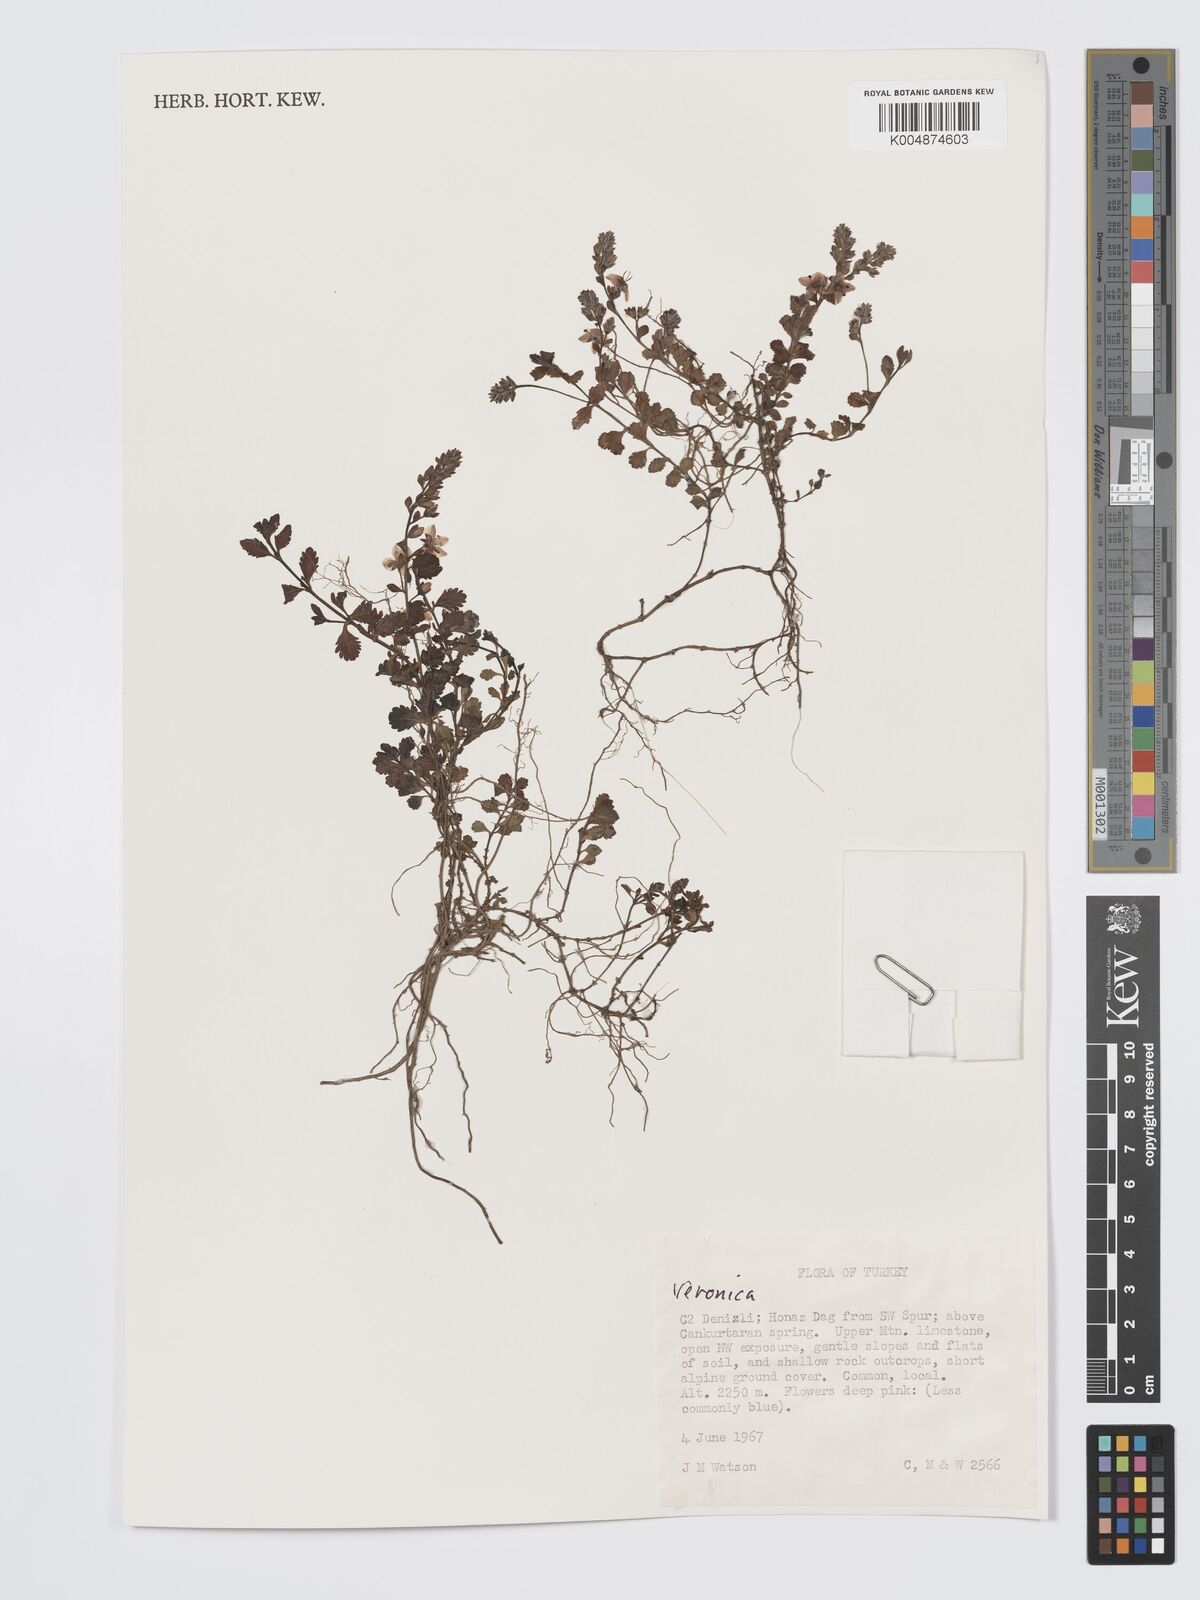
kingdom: Plantae
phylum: Tracheophyta
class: Magnoliopsida
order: Lamiales
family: Plantaginaceae
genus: Veronica
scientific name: Veronica
